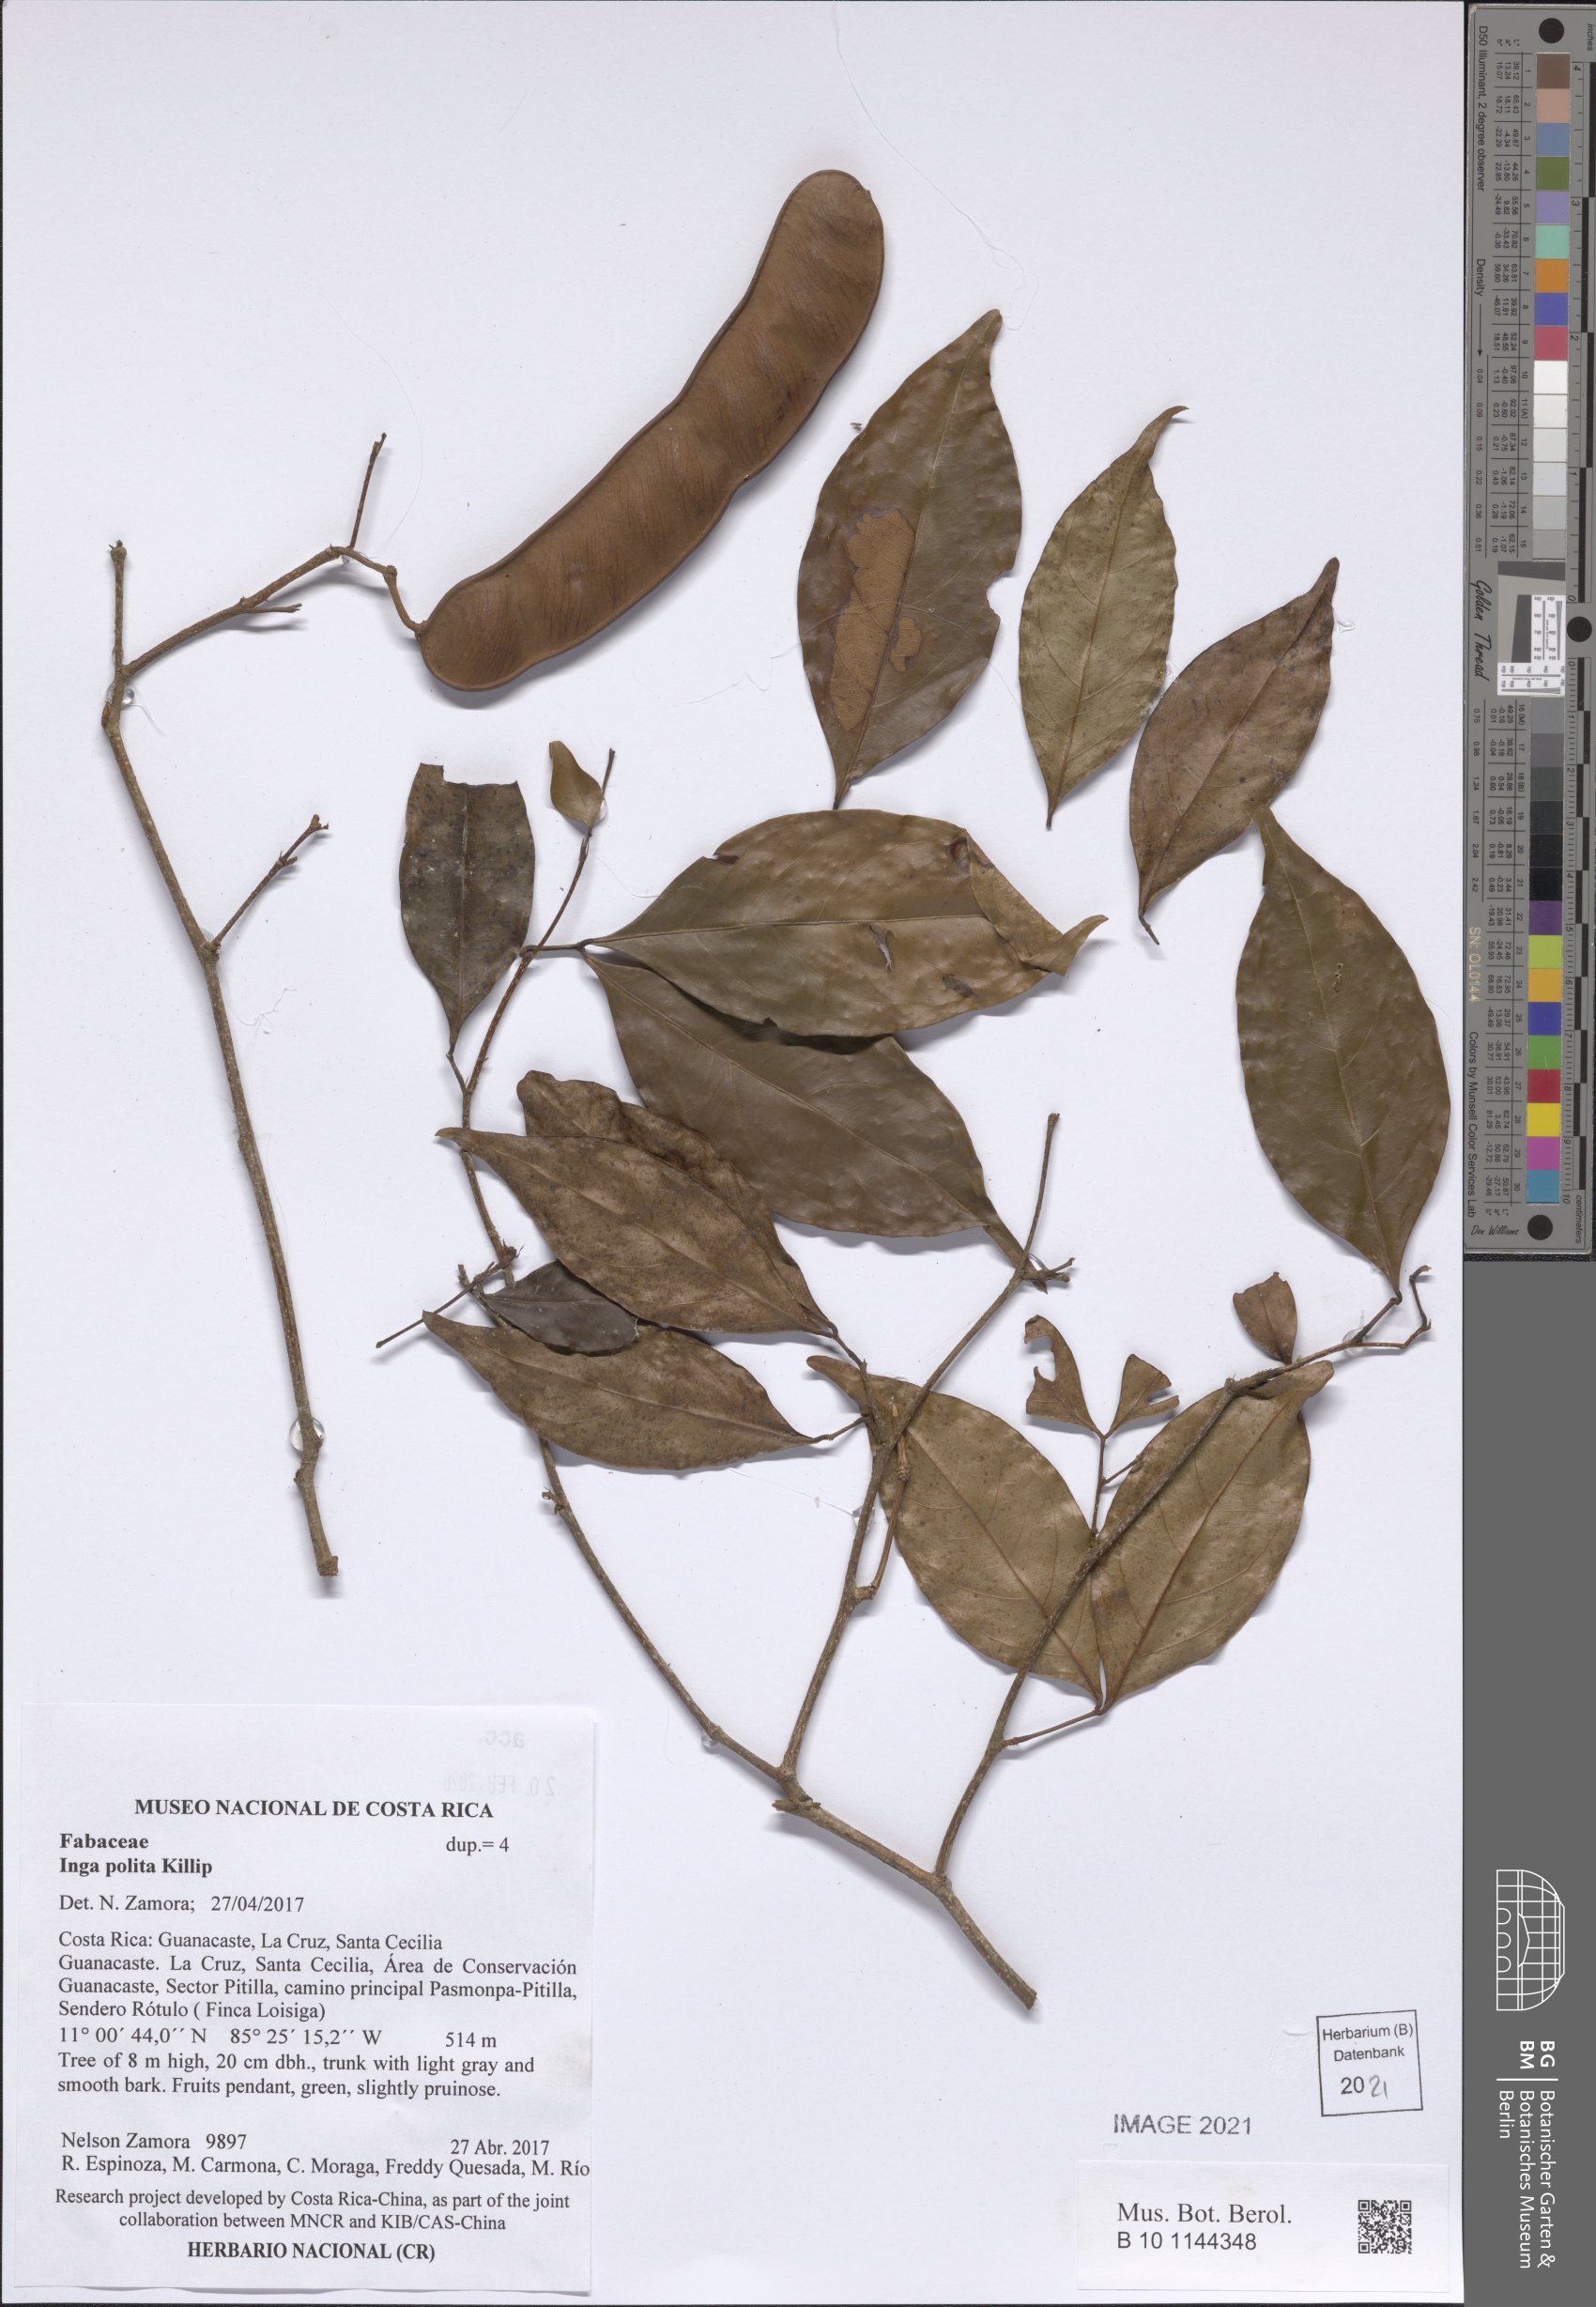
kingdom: Plantae
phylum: Tracheophyta
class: Magnoliopsida
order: Fabales
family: Fabaceae
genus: Inga
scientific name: Inga polita
